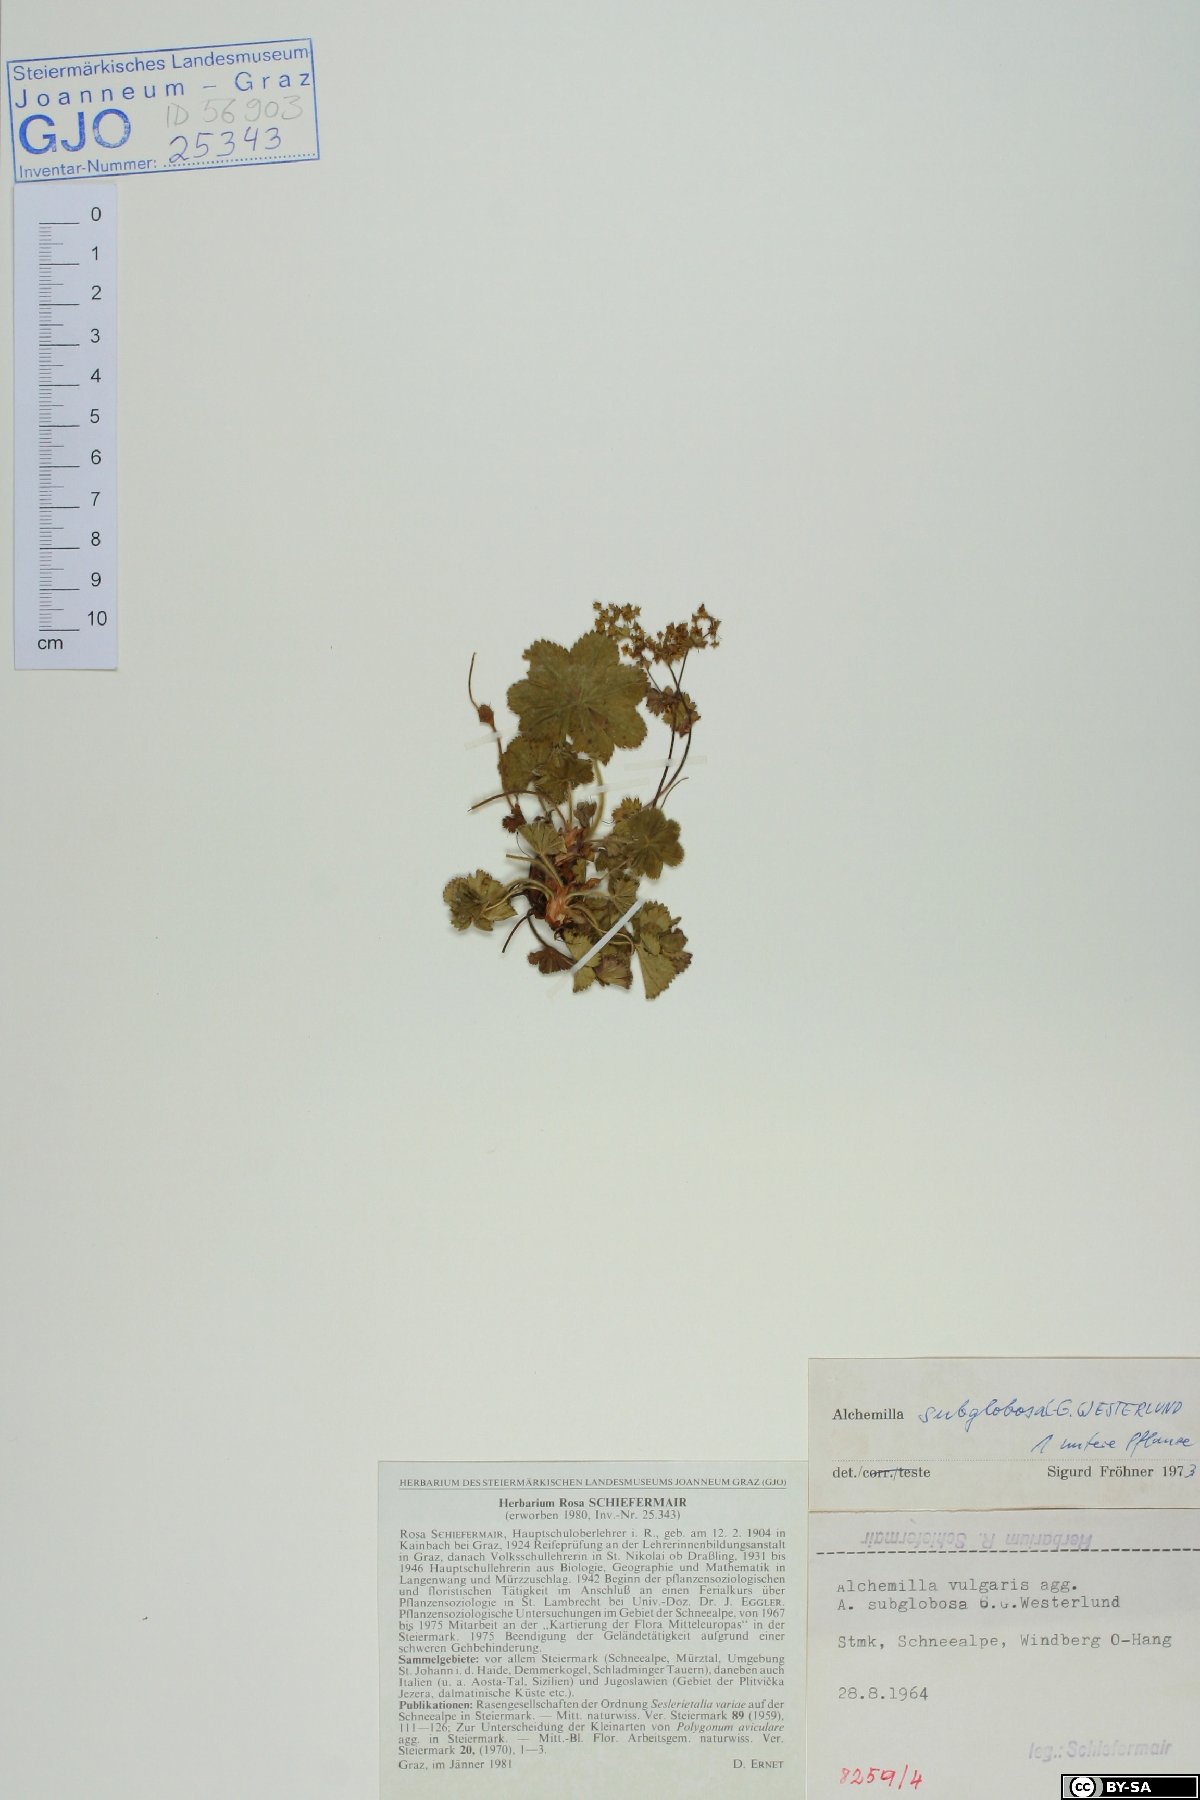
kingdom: Plantae
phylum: Tracheophyta
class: Magnoliopsida
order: Rosales
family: Rosaceae
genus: Alchemilla
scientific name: Alchemilla subglobosa
